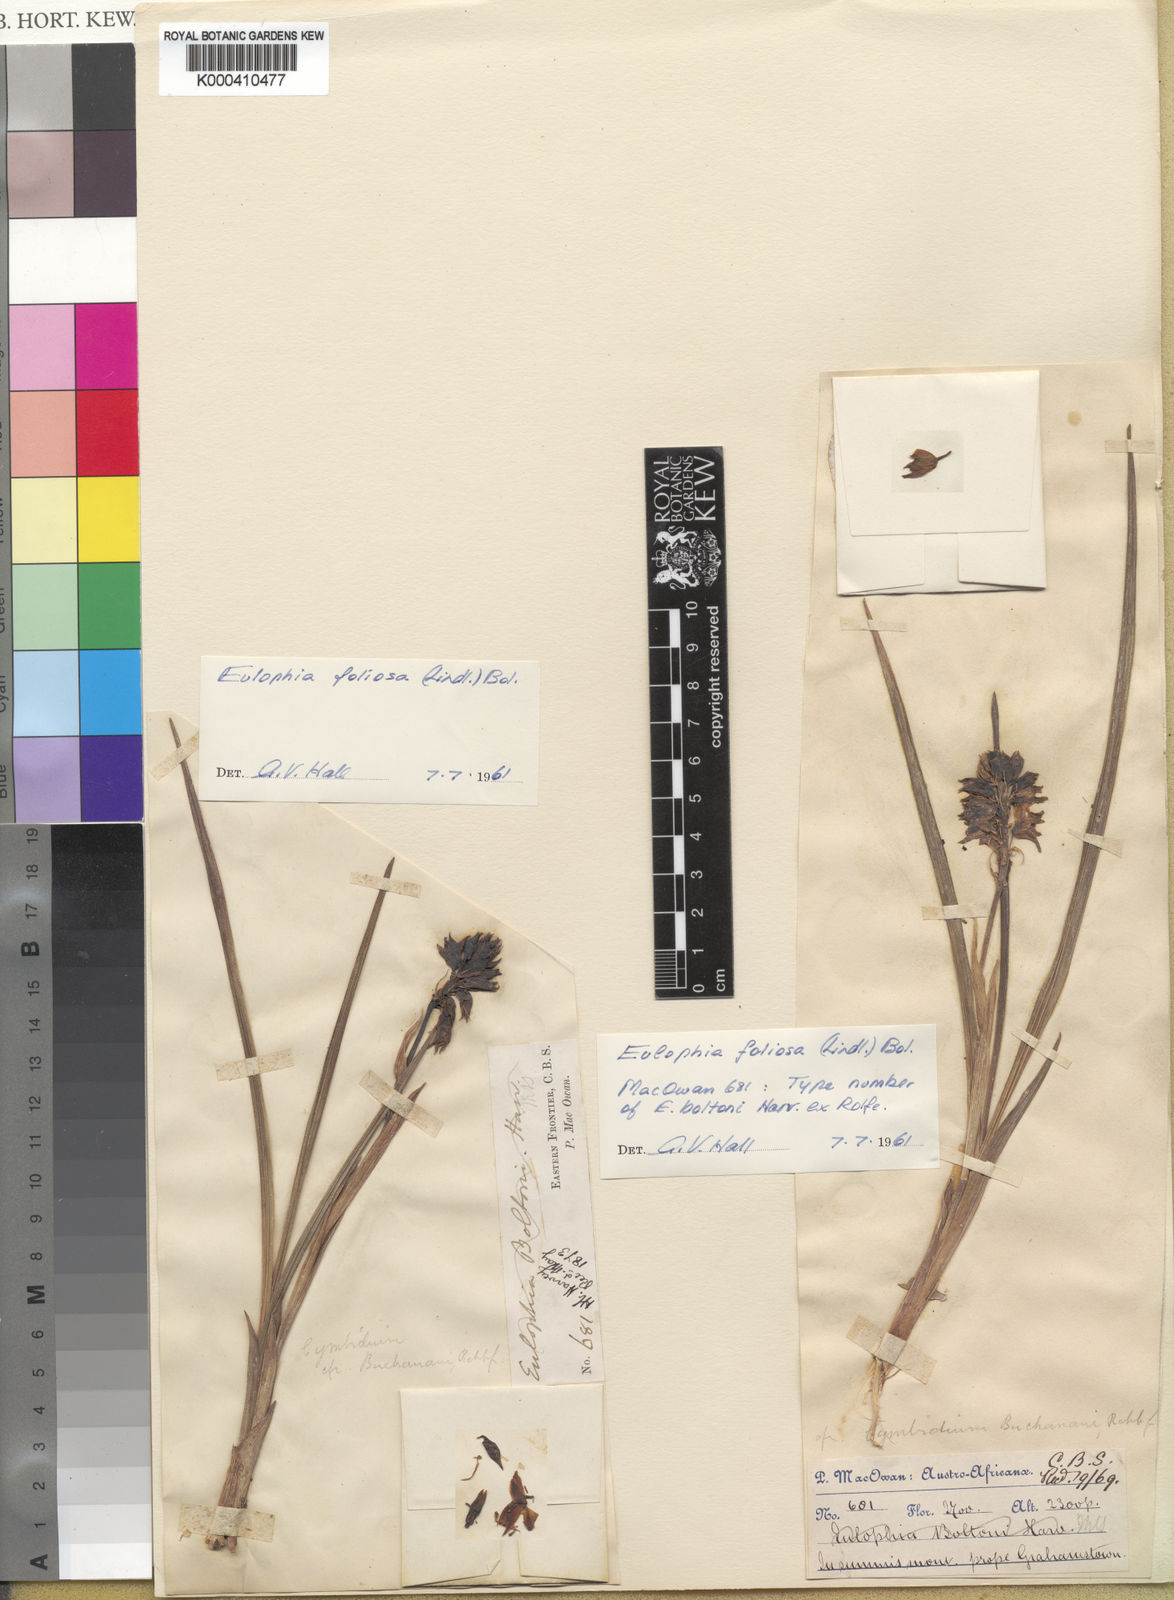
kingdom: Plantae
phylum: Tracheophyta
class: Liliopsida
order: Asparagales
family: Orchidaceae
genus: Eulophia
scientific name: Eulophia foliosa
